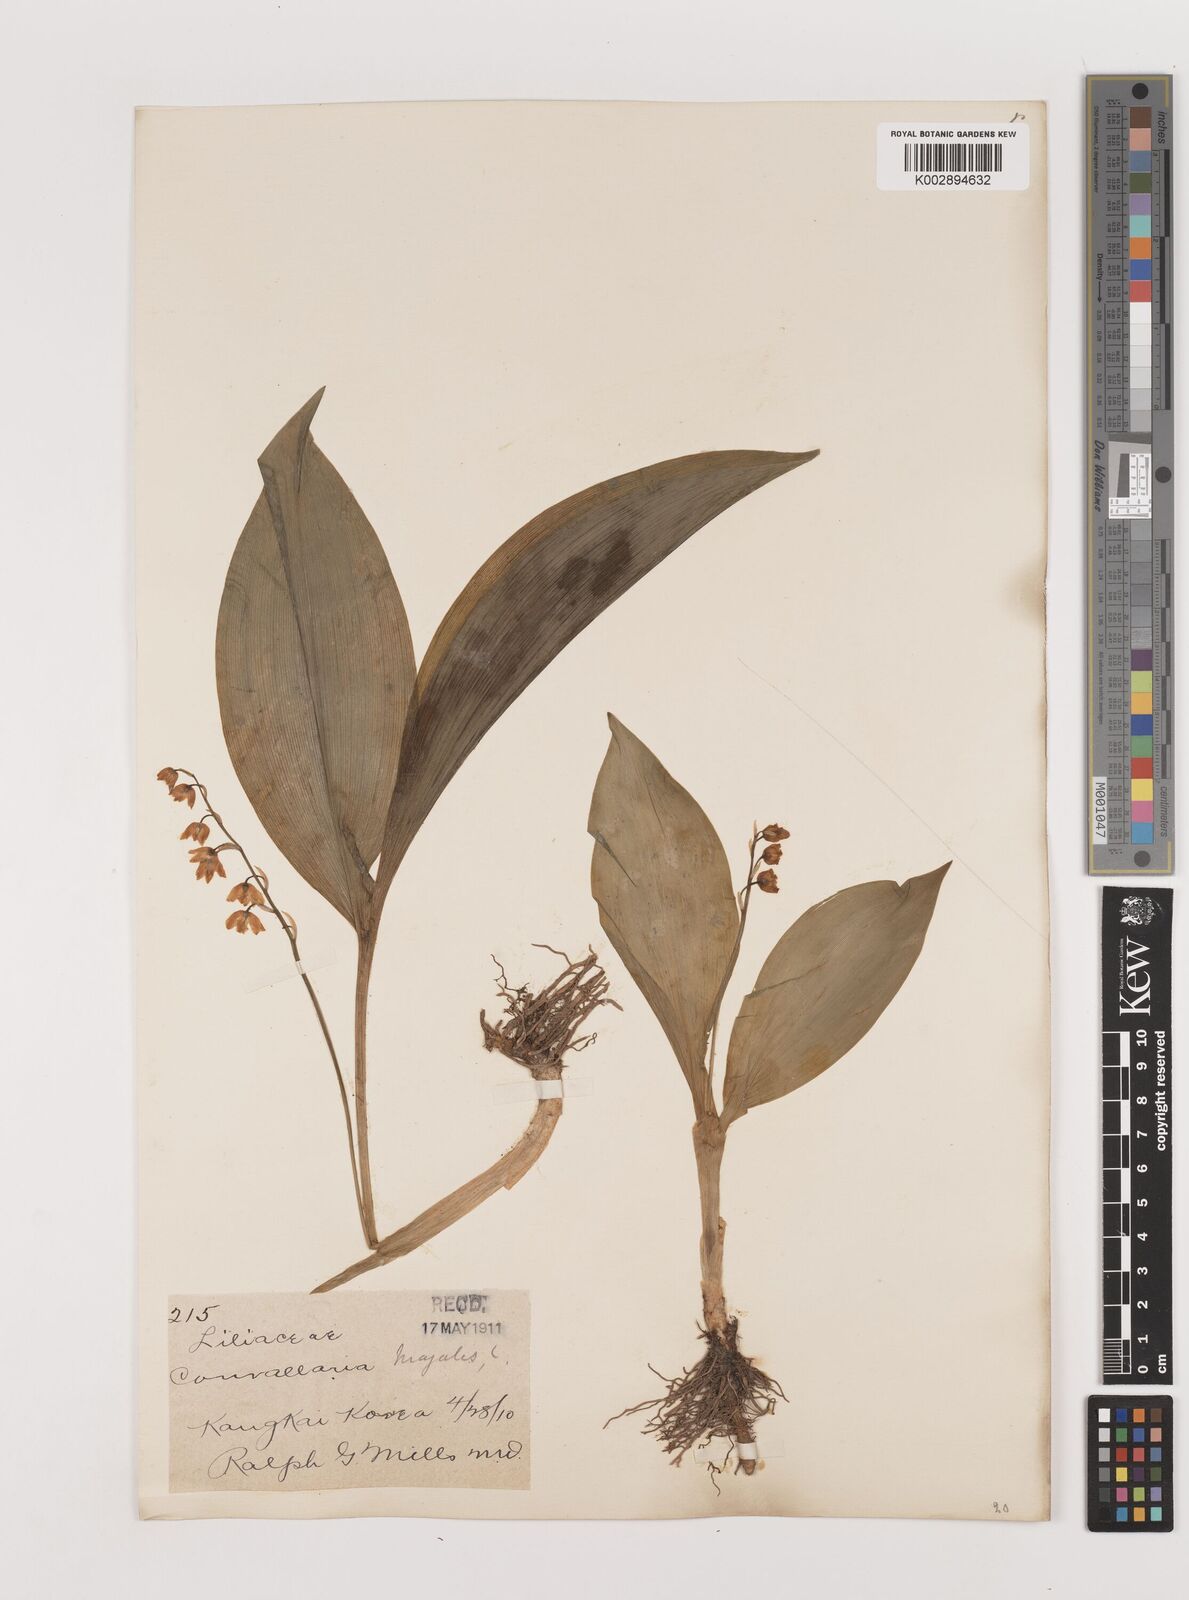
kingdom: Plantae
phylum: Tracheophyta
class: Liliopsida
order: Asparagales
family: Asparagaceae
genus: Ophiopogon
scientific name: Ophiopogon
